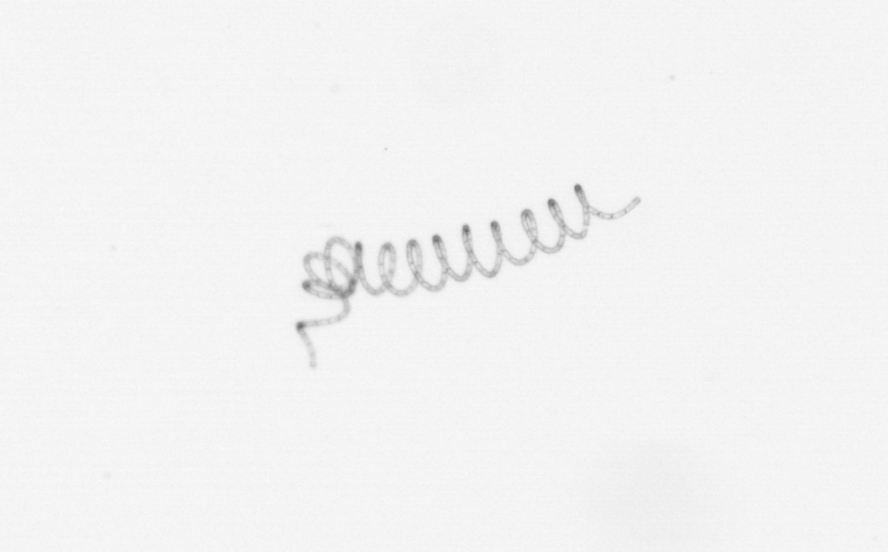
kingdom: Chromista
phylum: Ochrophyta
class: Bacillariophyceae
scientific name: Bacillariophyceae
